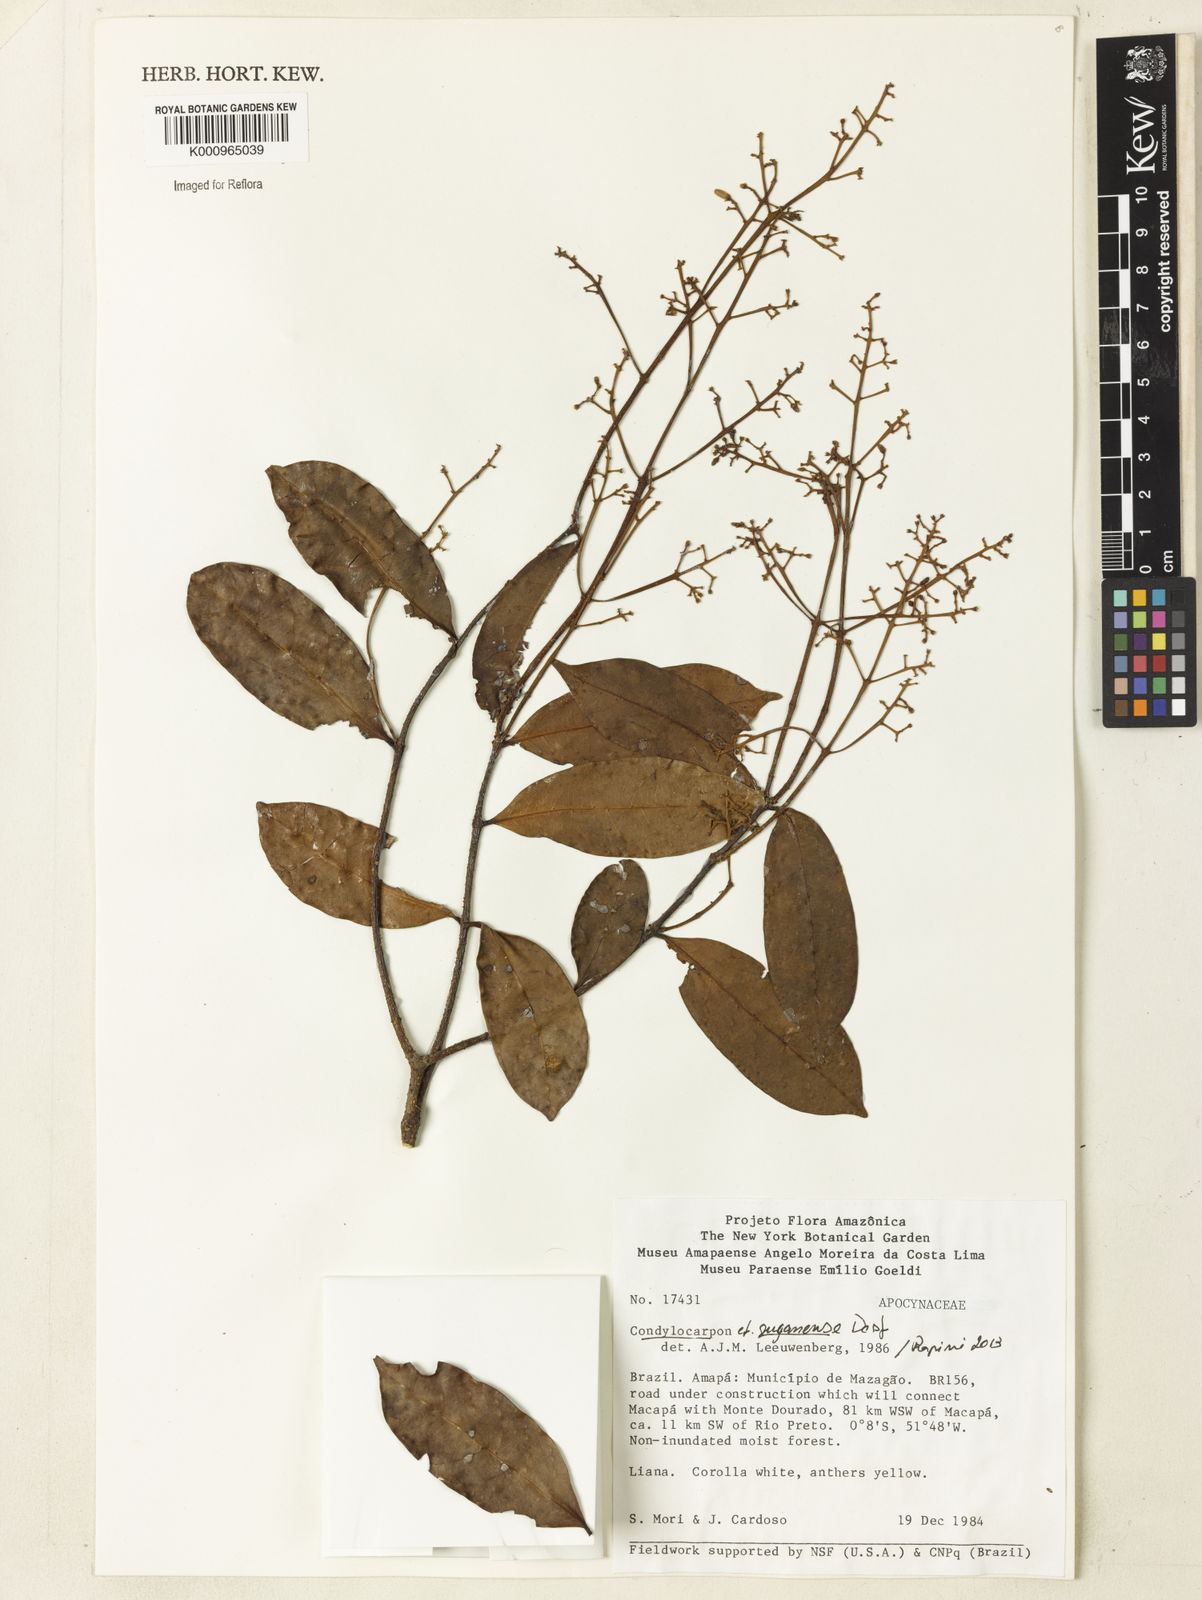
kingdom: Plantae
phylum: Tracheophyta
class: Magnoliopsida
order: Gentianales
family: Apocynaceae
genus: Condylocarpon
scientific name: Condylocarpon guyanense
